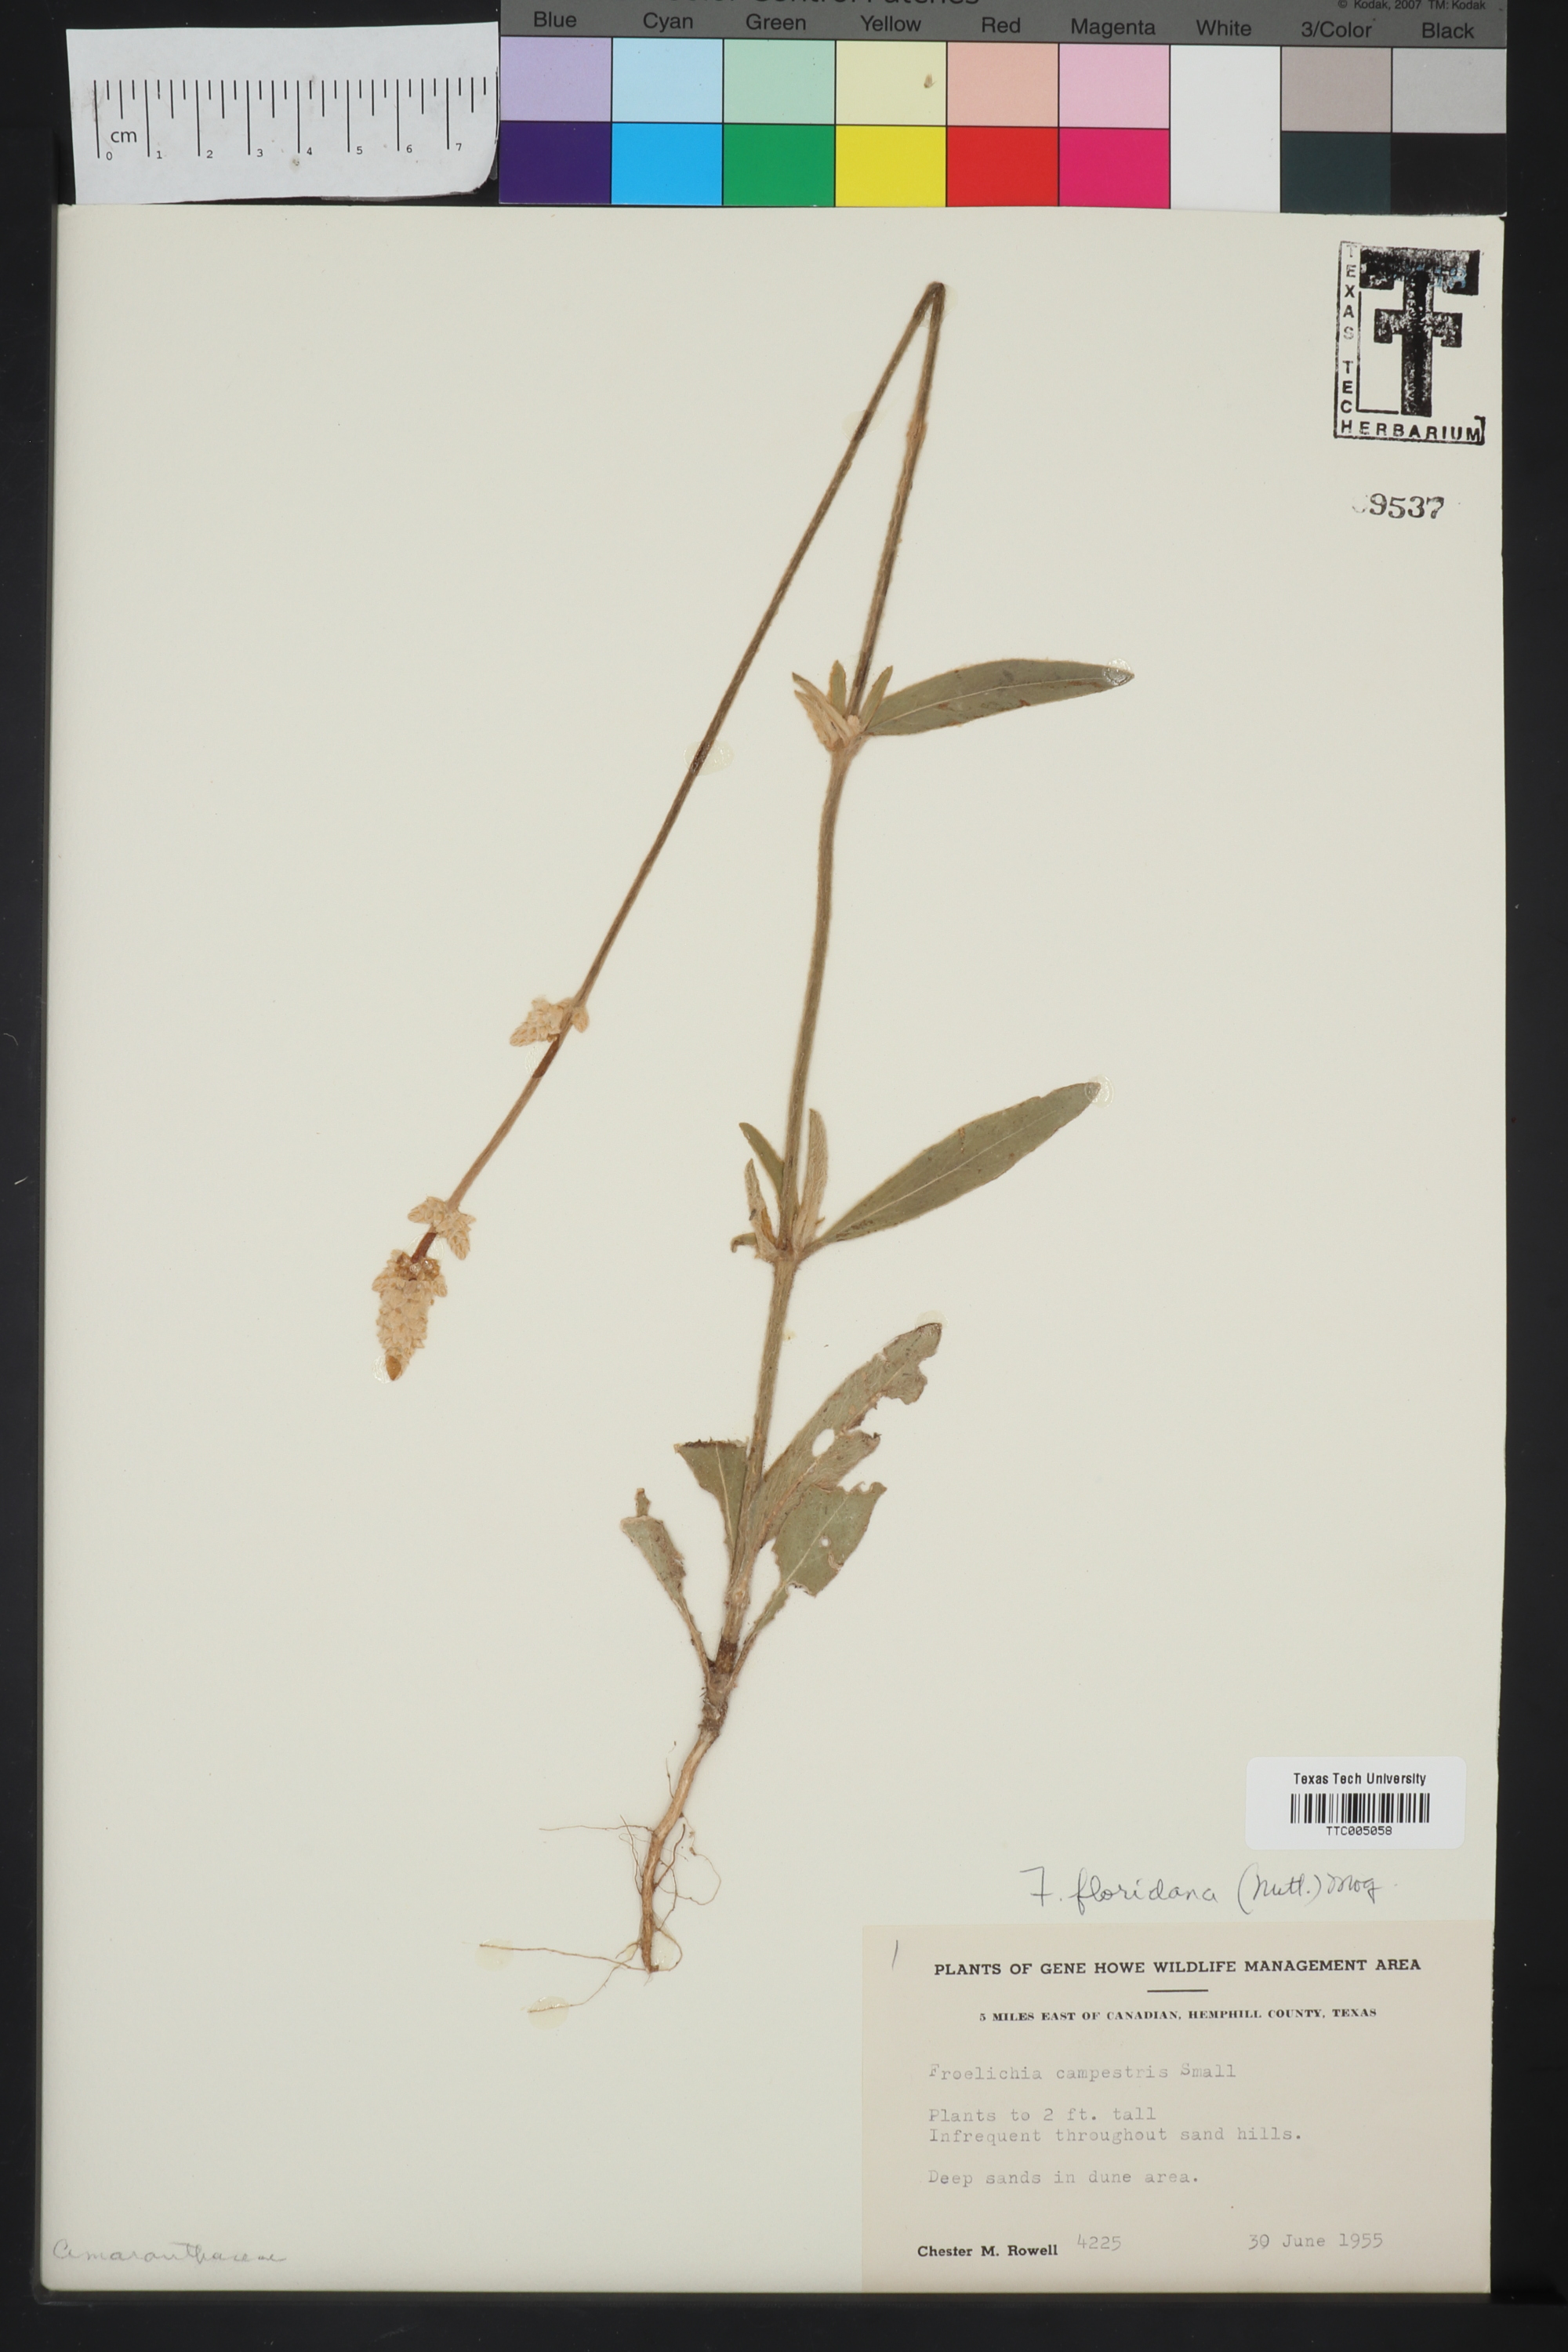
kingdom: Plantae
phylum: Tracheophyta
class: Magnoliopsida
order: Caryophyllales
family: Amaranthaceae
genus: Froelichia
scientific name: Froelichia floridana
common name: Florida snake-cotton
